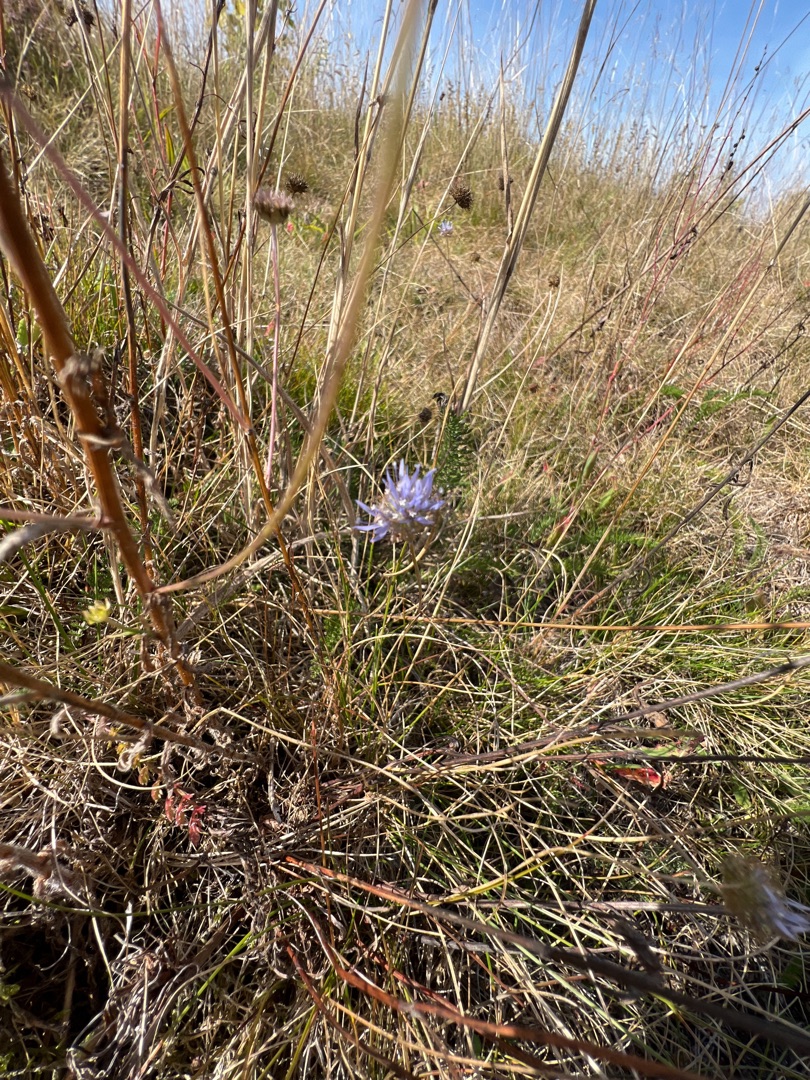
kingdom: Plantae
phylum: Tracheophyta
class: Magnoliopsida
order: Asterales
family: Campanulaceae
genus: Jasione
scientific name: Jasione montana
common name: Blåmunke
